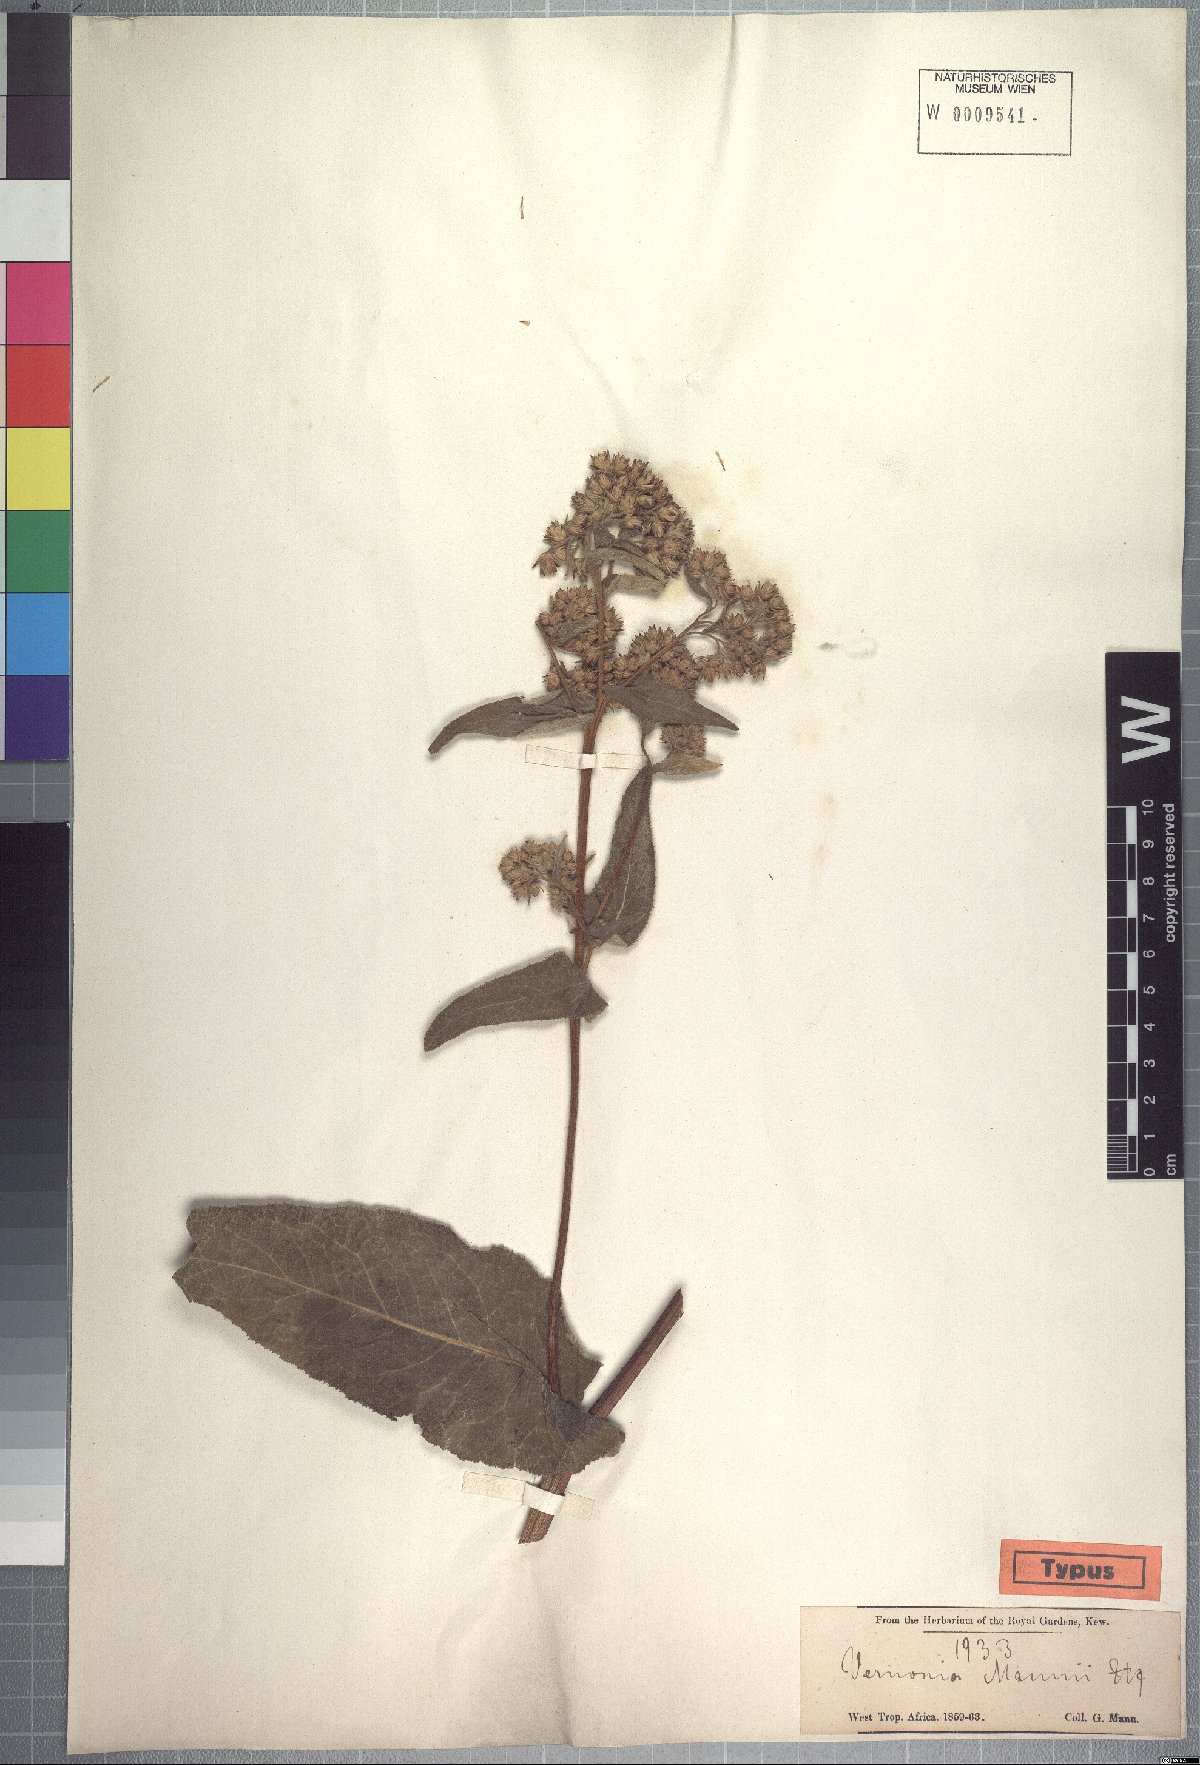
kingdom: Plantae
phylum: Tracheophyta
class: Magnoliopsida
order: Asterales
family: Asteraceae
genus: Inula
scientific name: Inula mannii
